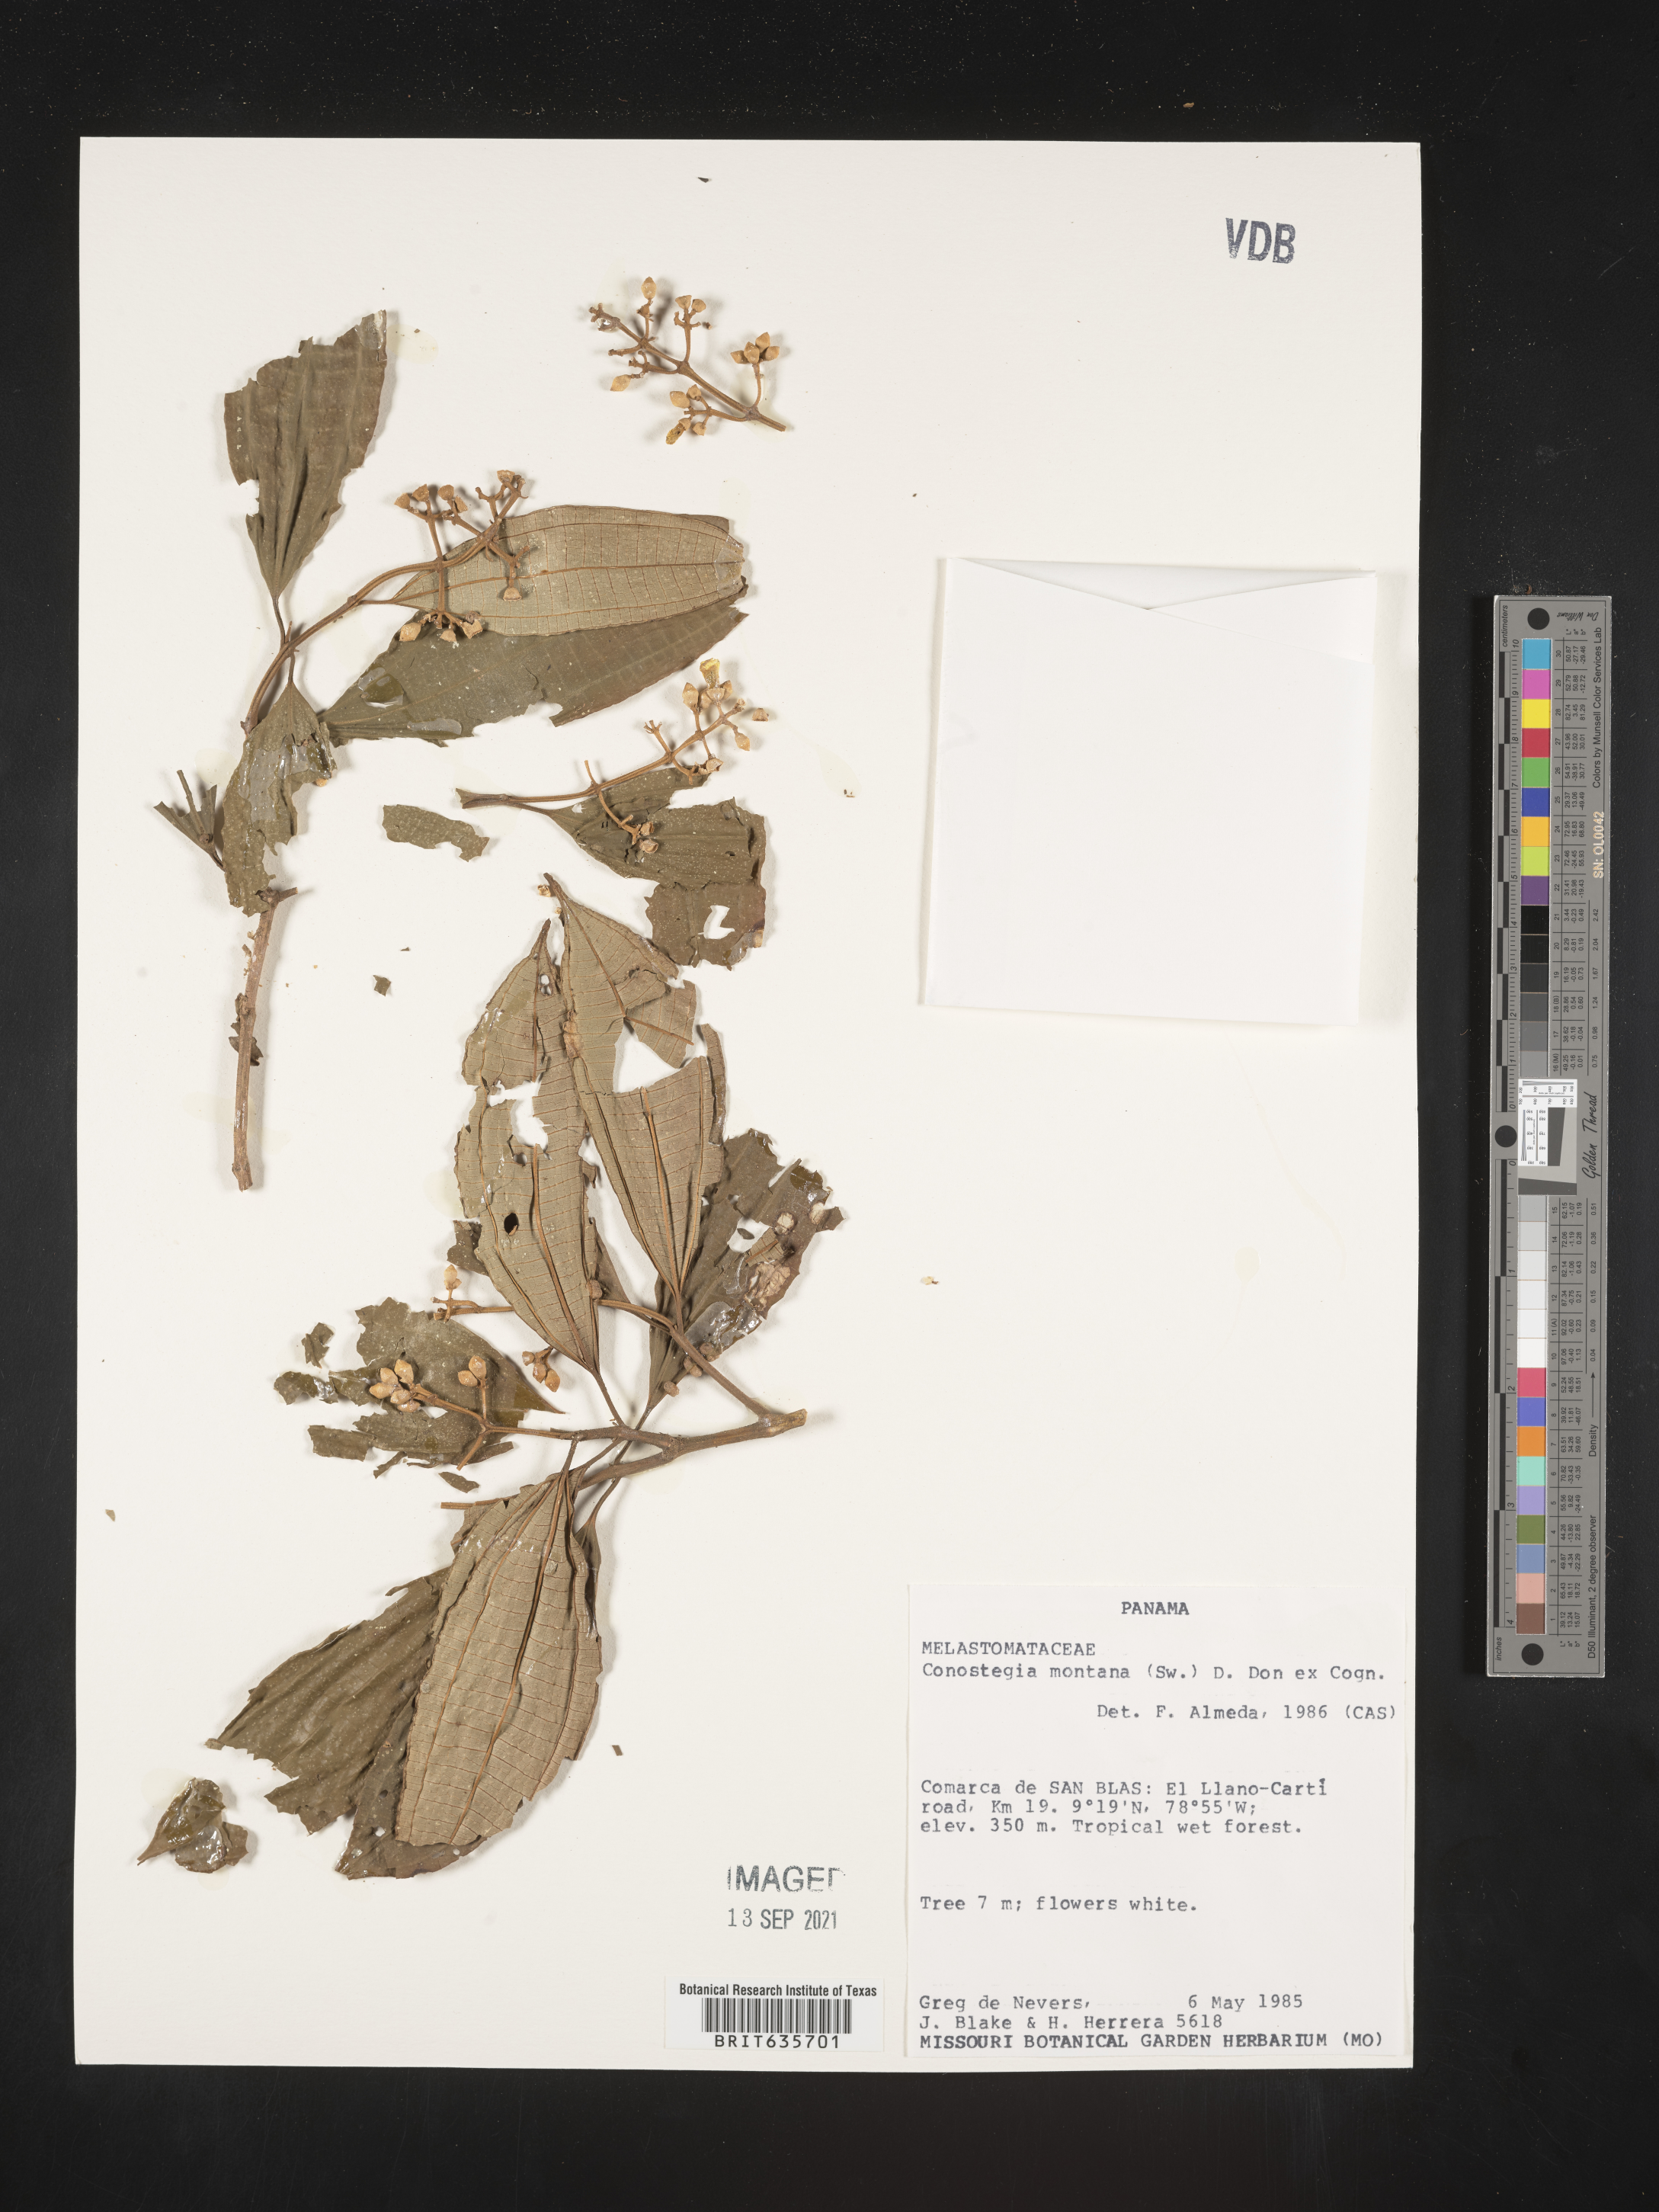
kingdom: Plantae
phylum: Tracheophyta
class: Magnoliopsida
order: Myrtales
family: Melastomataceae
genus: Miconia
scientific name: Miconia
